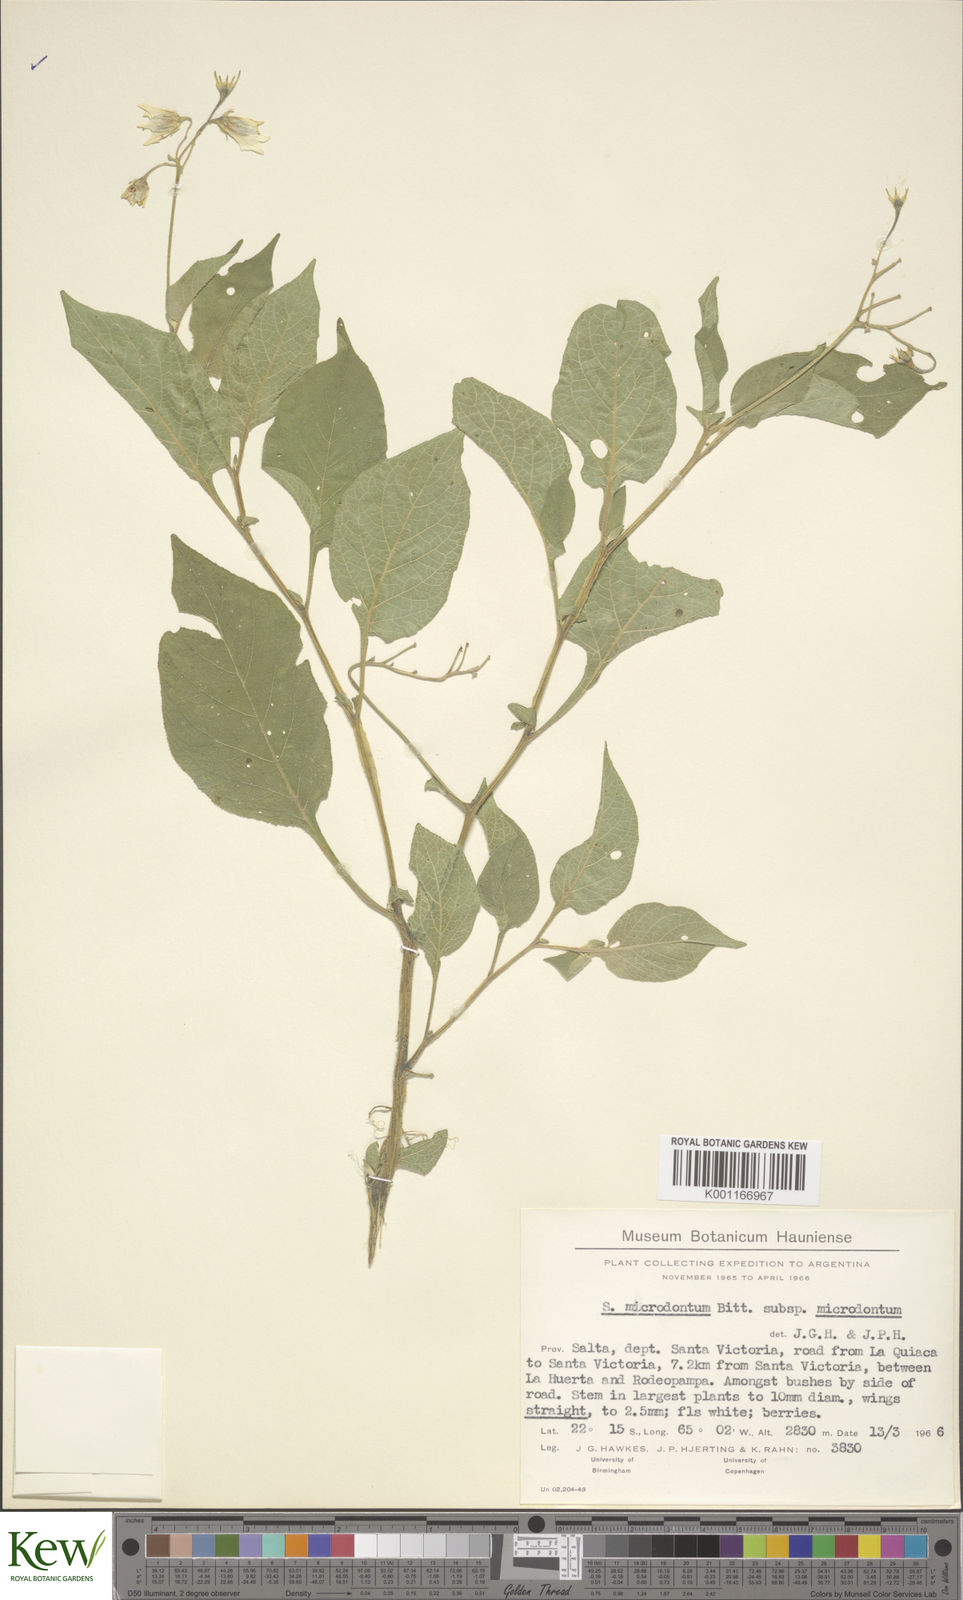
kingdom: Plantae
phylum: Tracheophyta
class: Magnoliopsida
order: Solanales
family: Solanaceae
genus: Solanum
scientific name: Solanum microdontum
